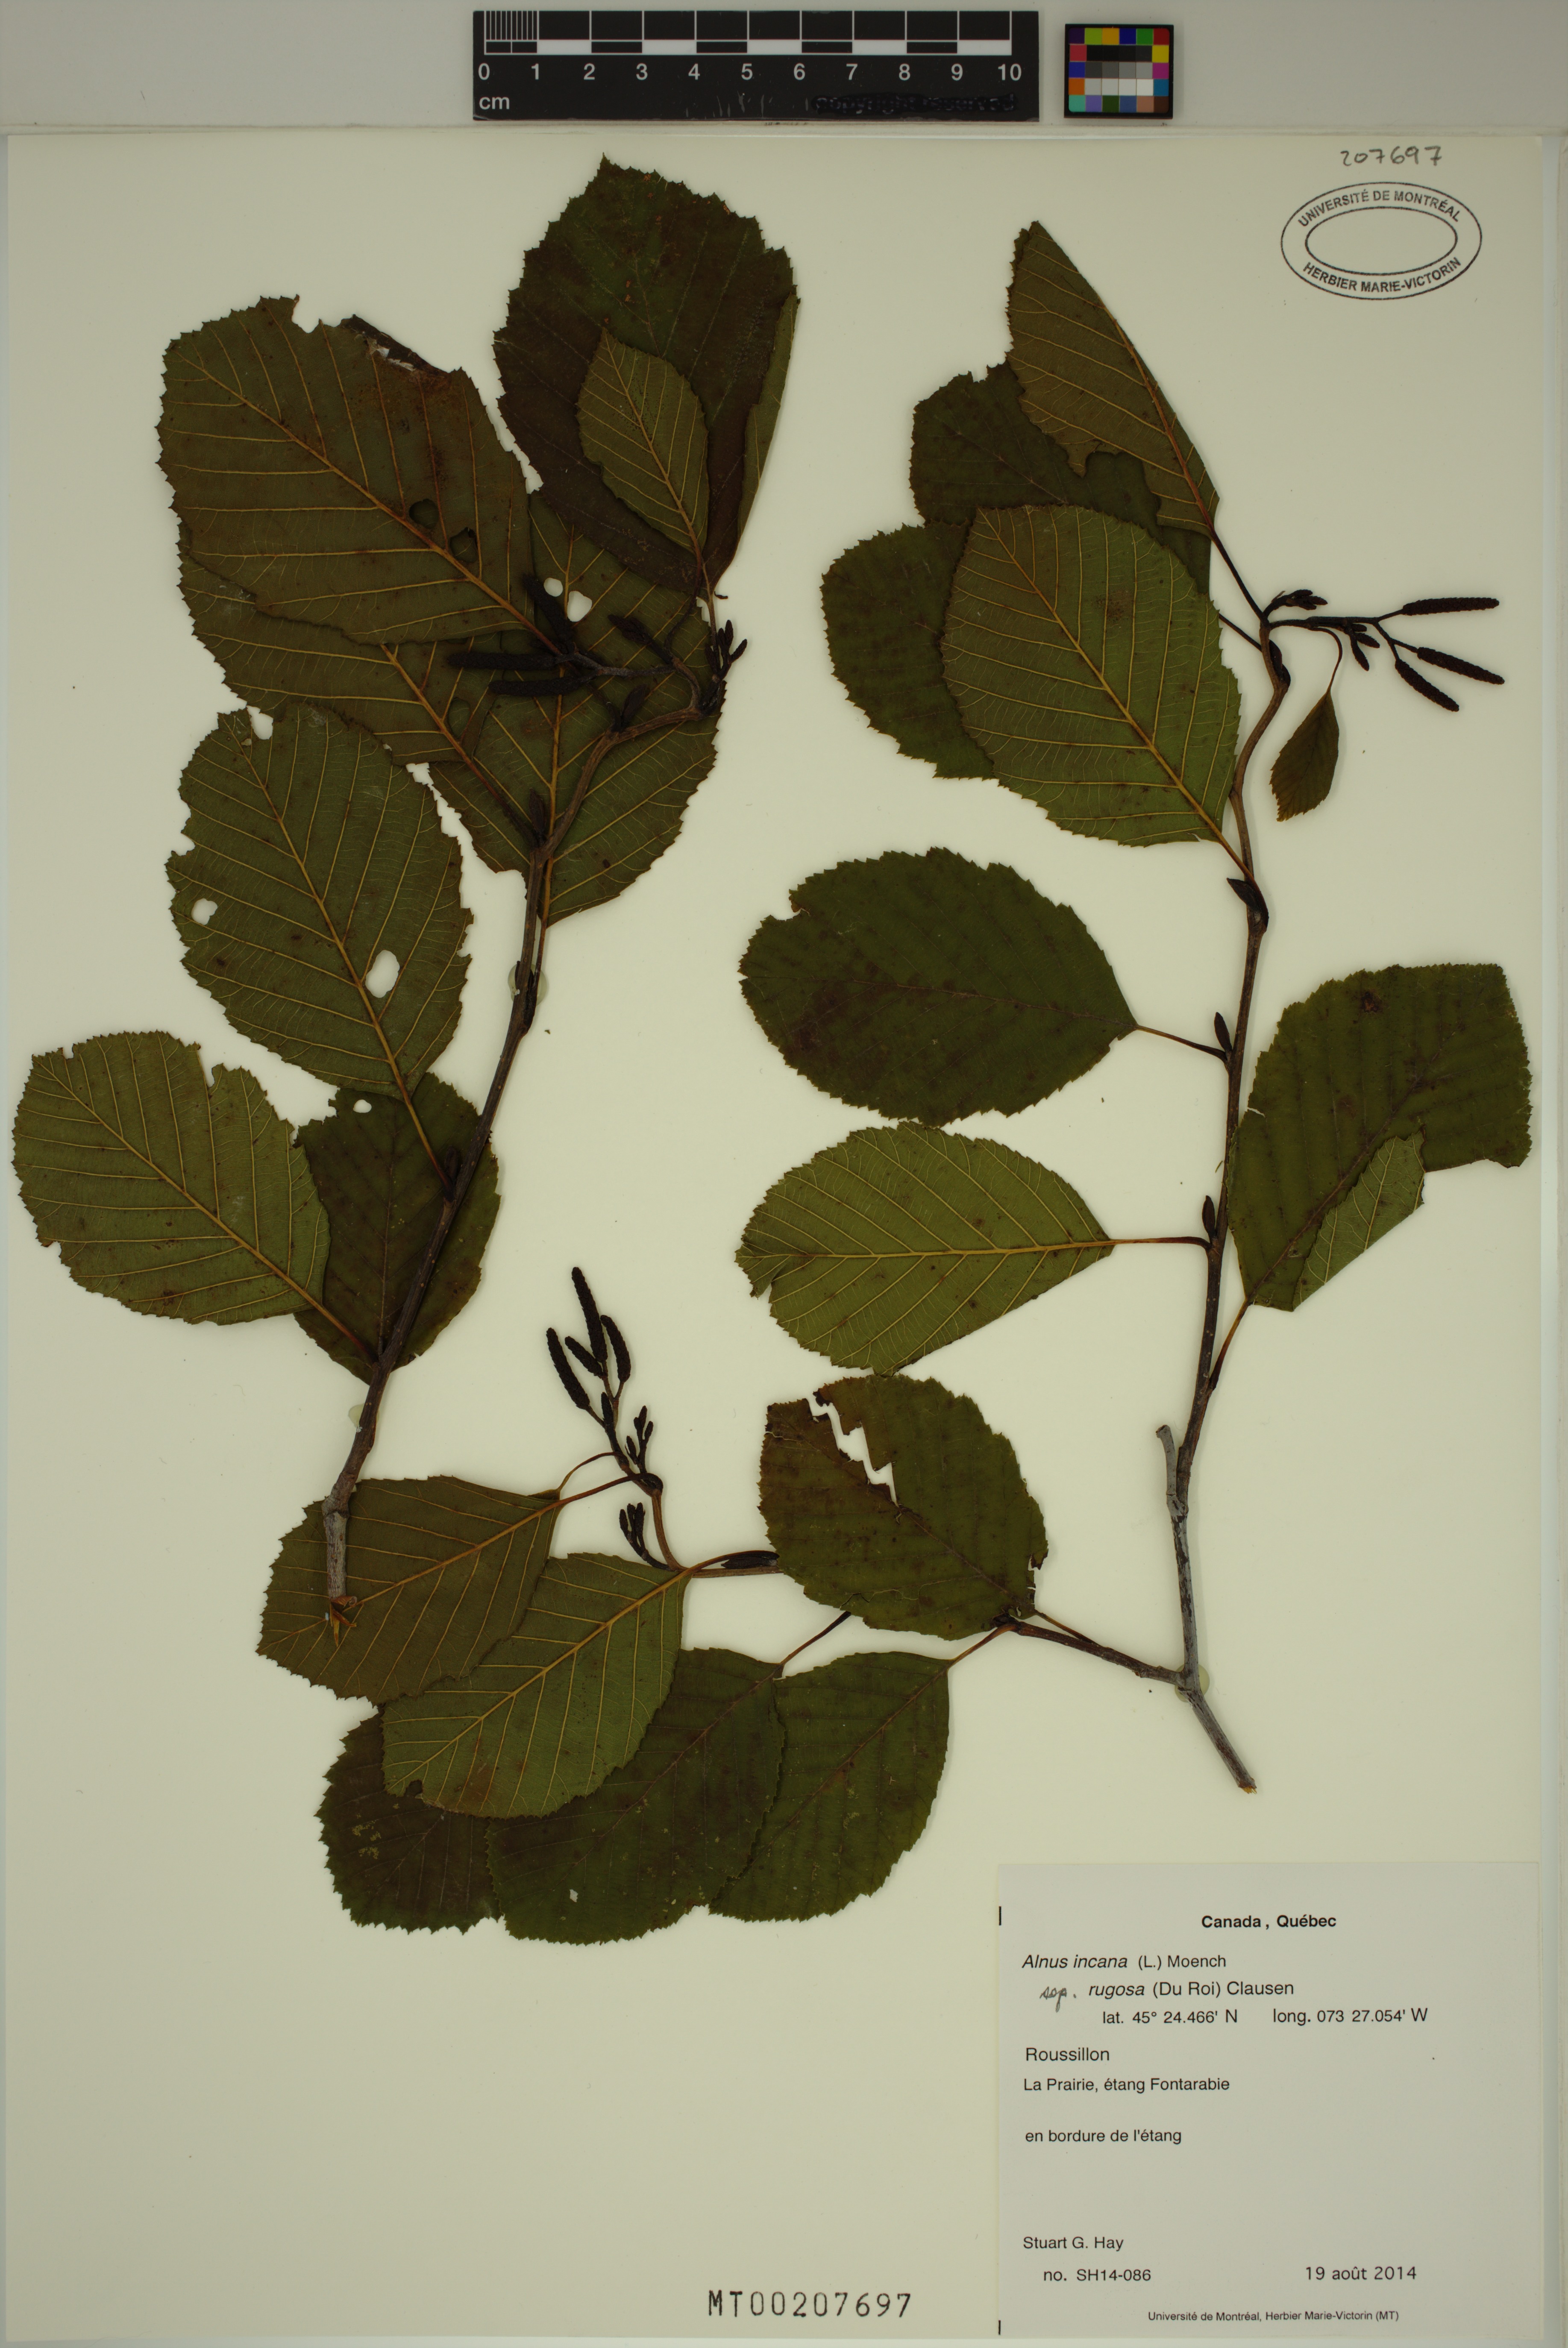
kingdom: Plantae
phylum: Tracheophyta
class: Magnoliopsida
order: Fagales
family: Betulaceae
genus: Alnus
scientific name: Alnus incana
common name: Grey alder
